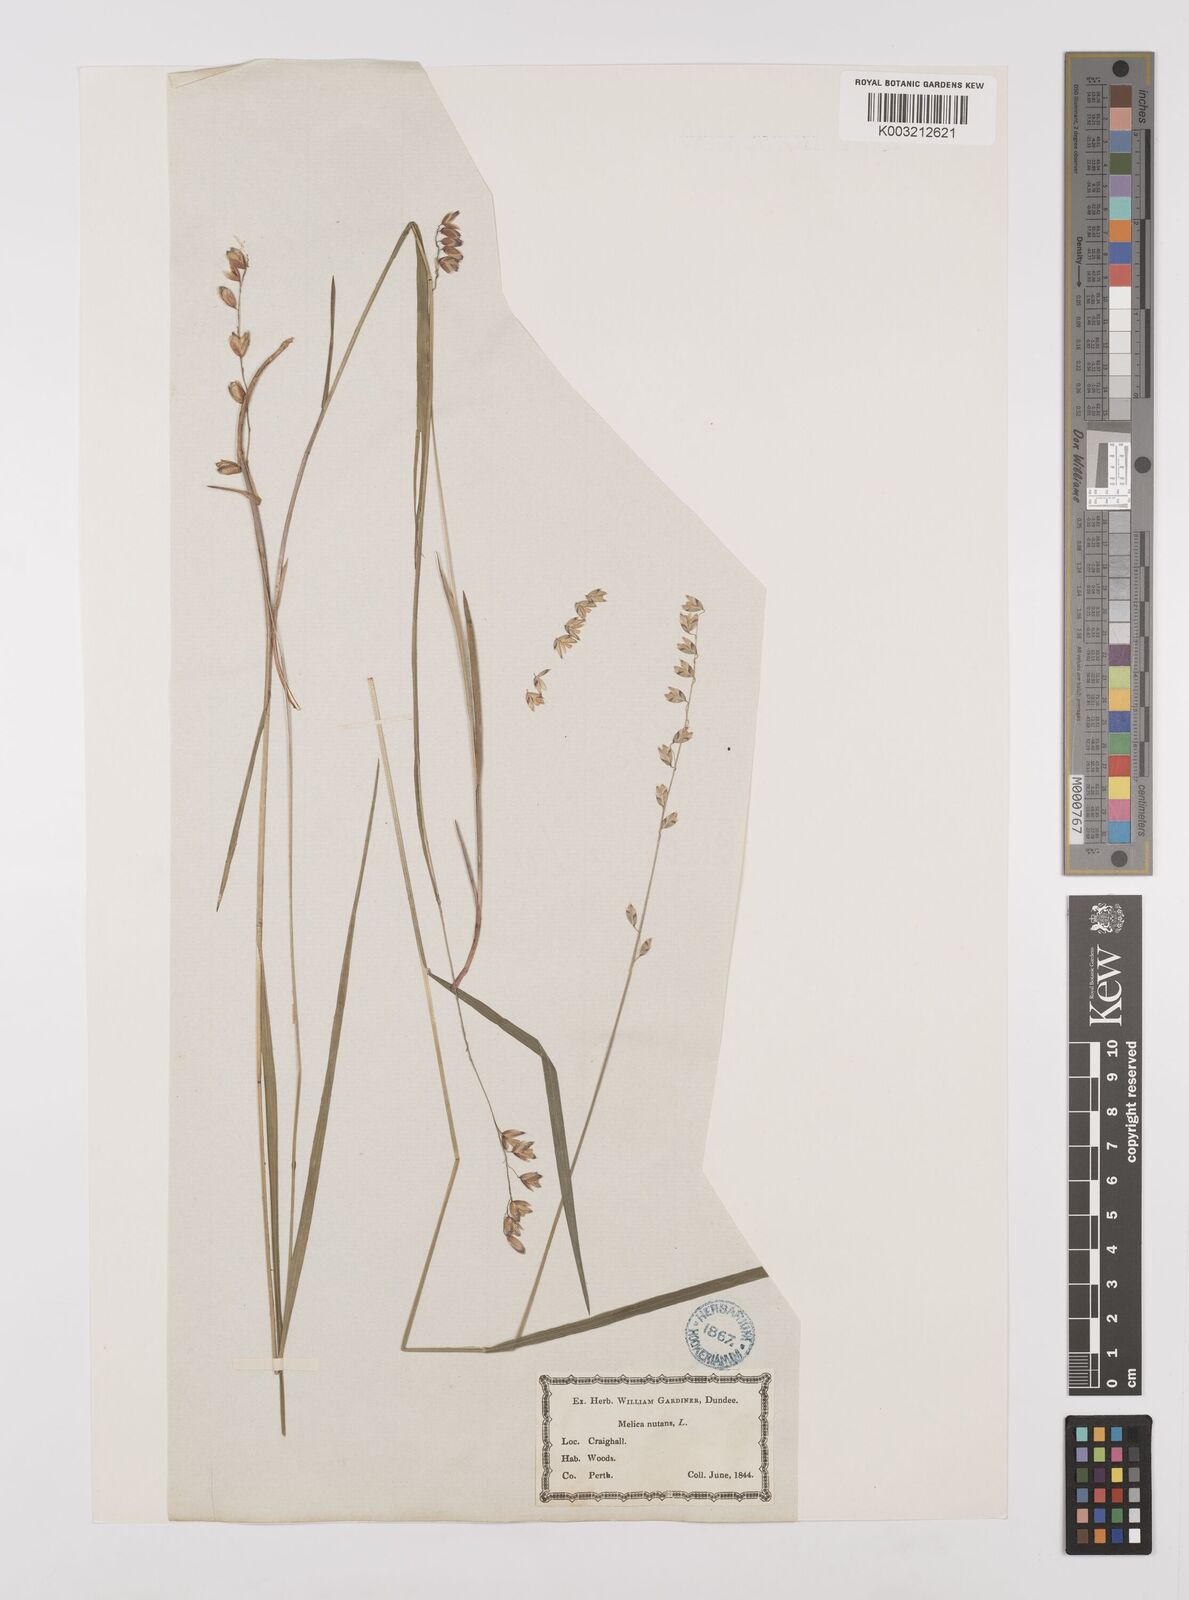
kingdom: Plantae
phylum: Tracheophyta
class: Liliopsida
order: Poales
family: Poaceae
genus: Melica
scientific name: Melica
